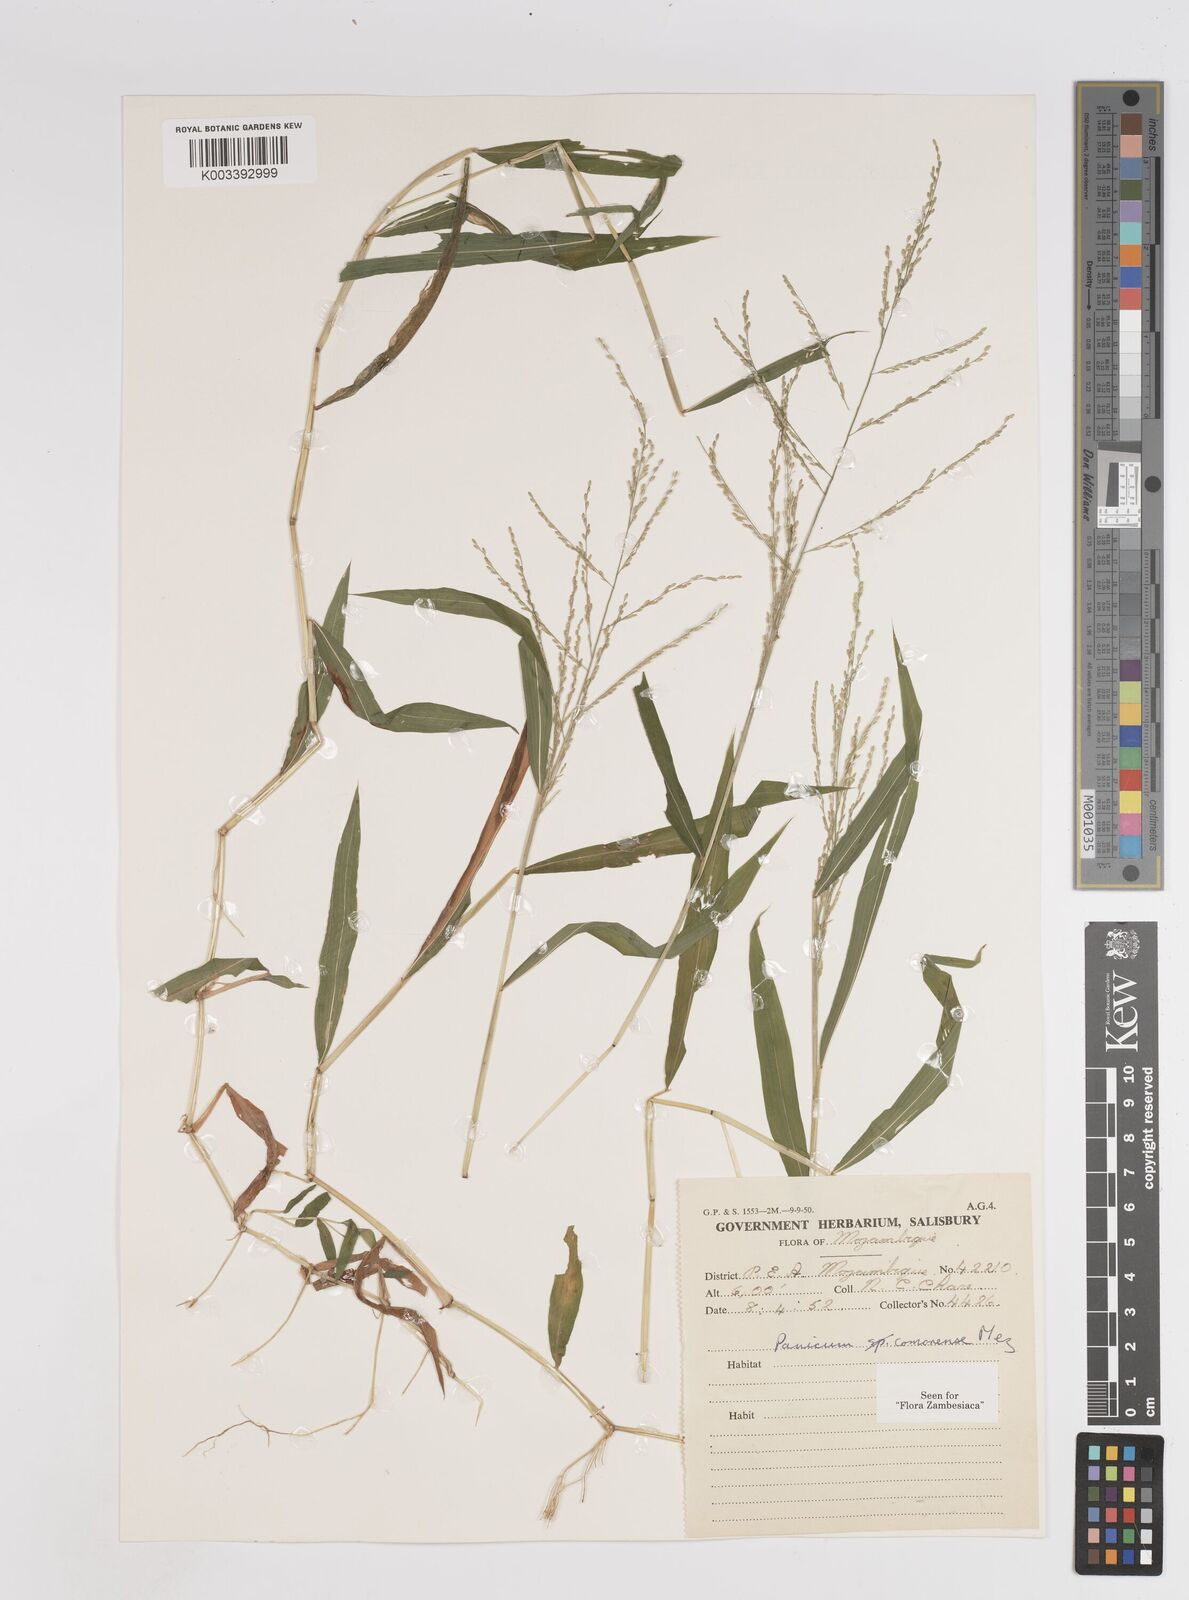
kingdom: Plantae
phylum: Tracheophyta
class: Liliopsida
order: Poales
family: Poaceae
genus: Panicum
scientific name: Panicum comorense
